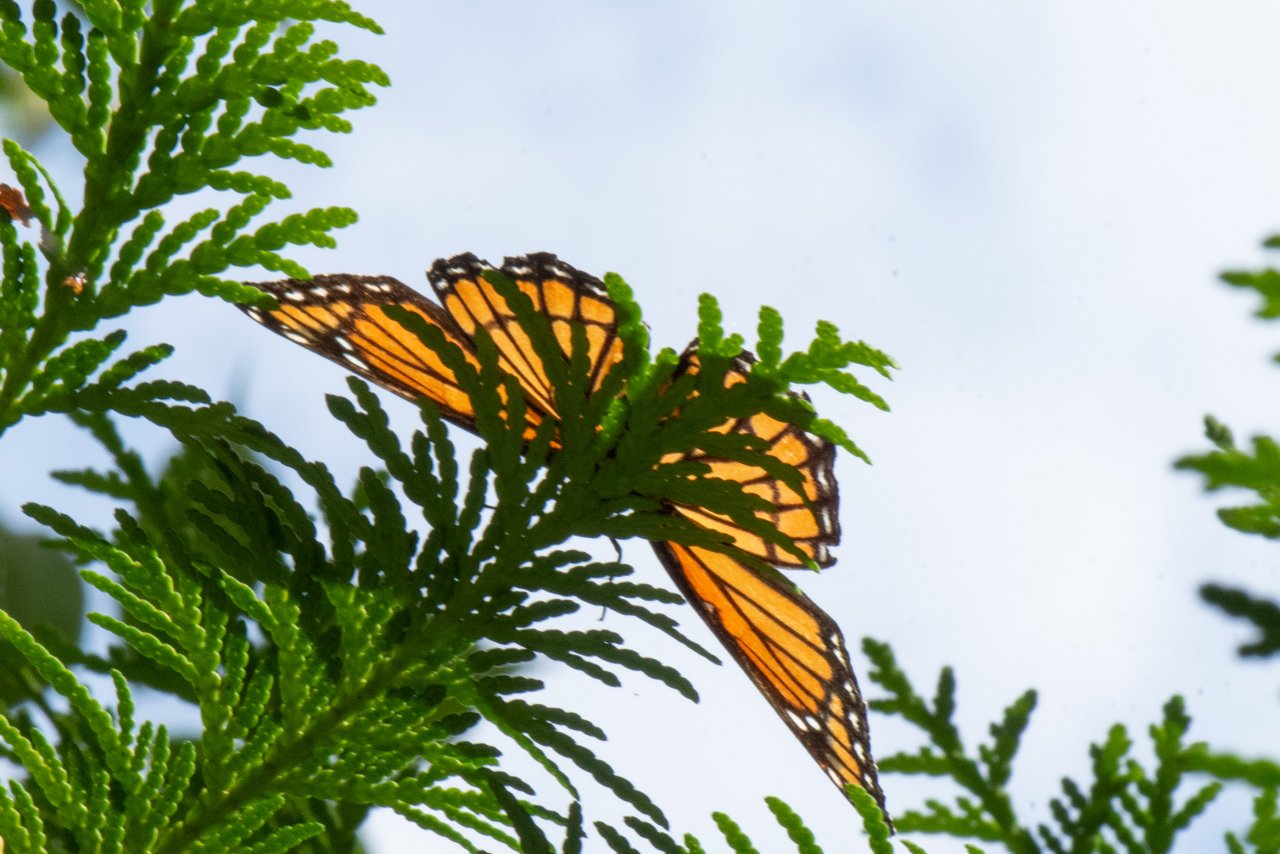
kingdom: Animalia
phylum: Arthropoda
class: Insecta
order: Lepidoptera
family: Nymphalidae
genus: Limenitis
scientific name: Limenitis archippus
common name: Viceroy
